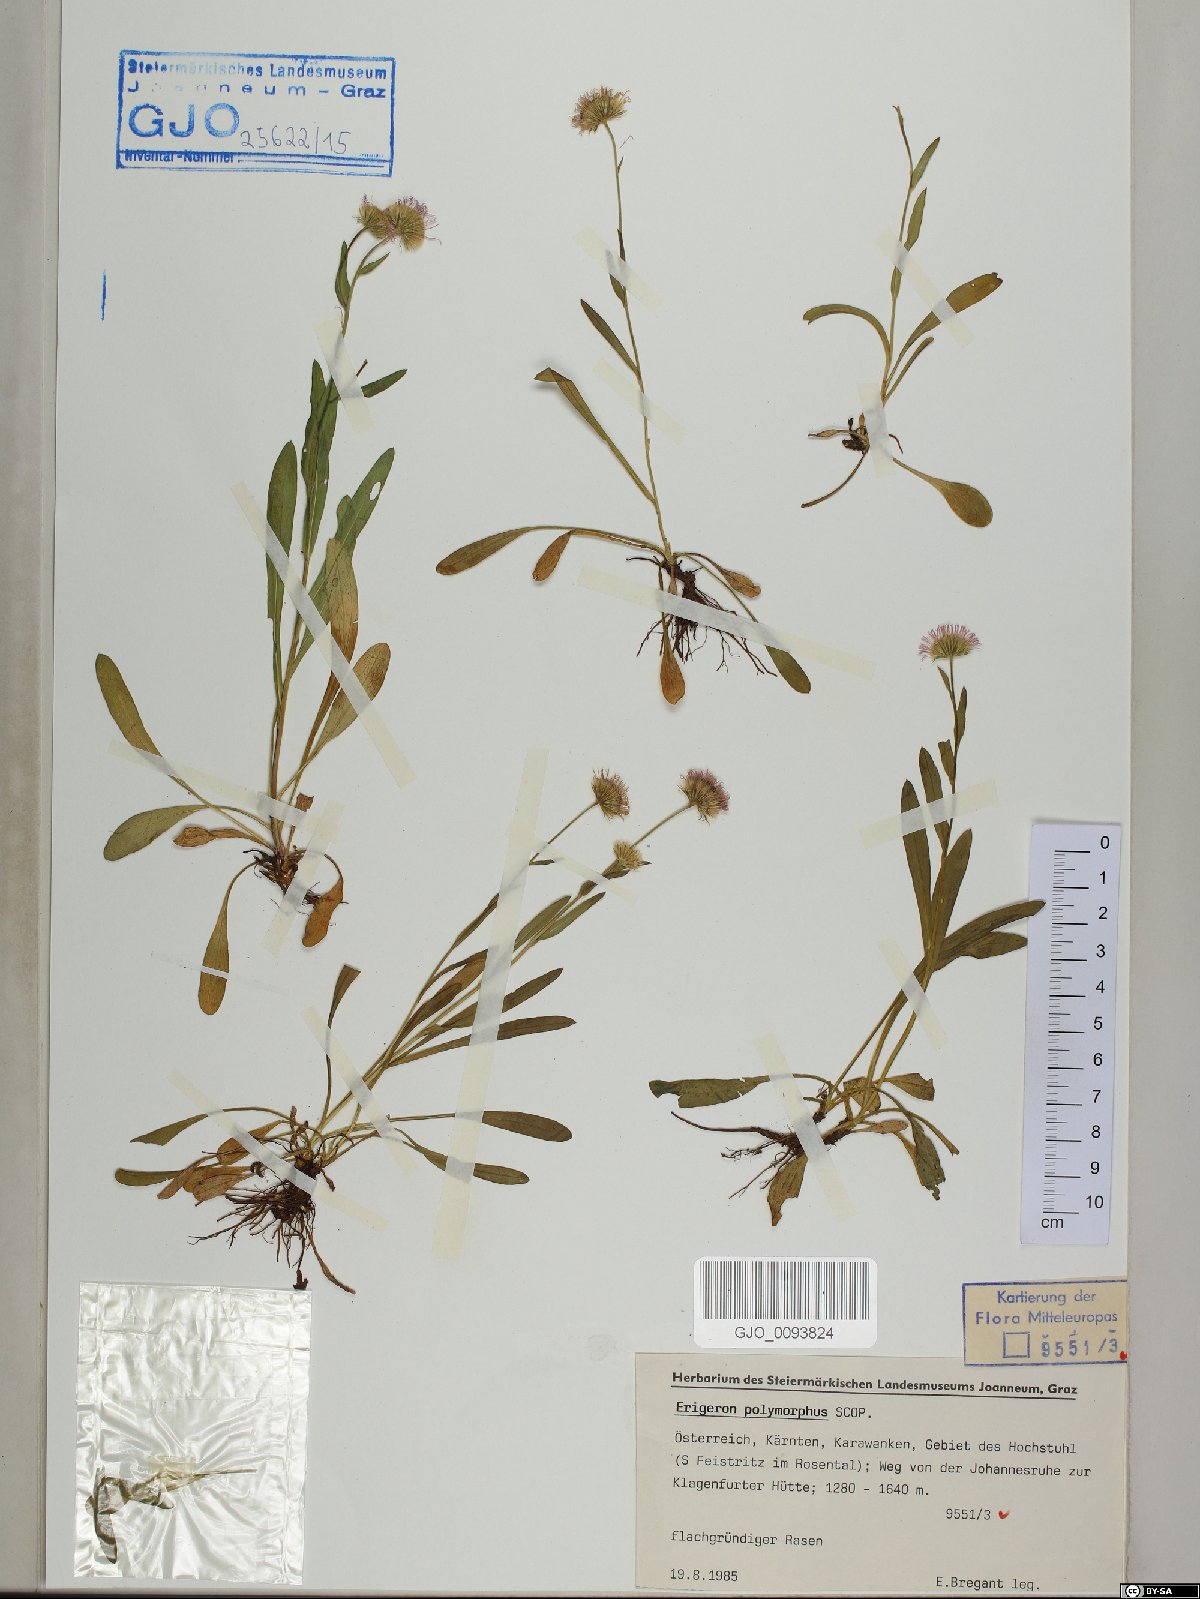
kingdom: Plantae
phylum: Tracheophyta
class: Magnoliopsida
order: Asterales
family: Asteraceae
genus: Erigeron
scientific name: Erigeron alpinus
